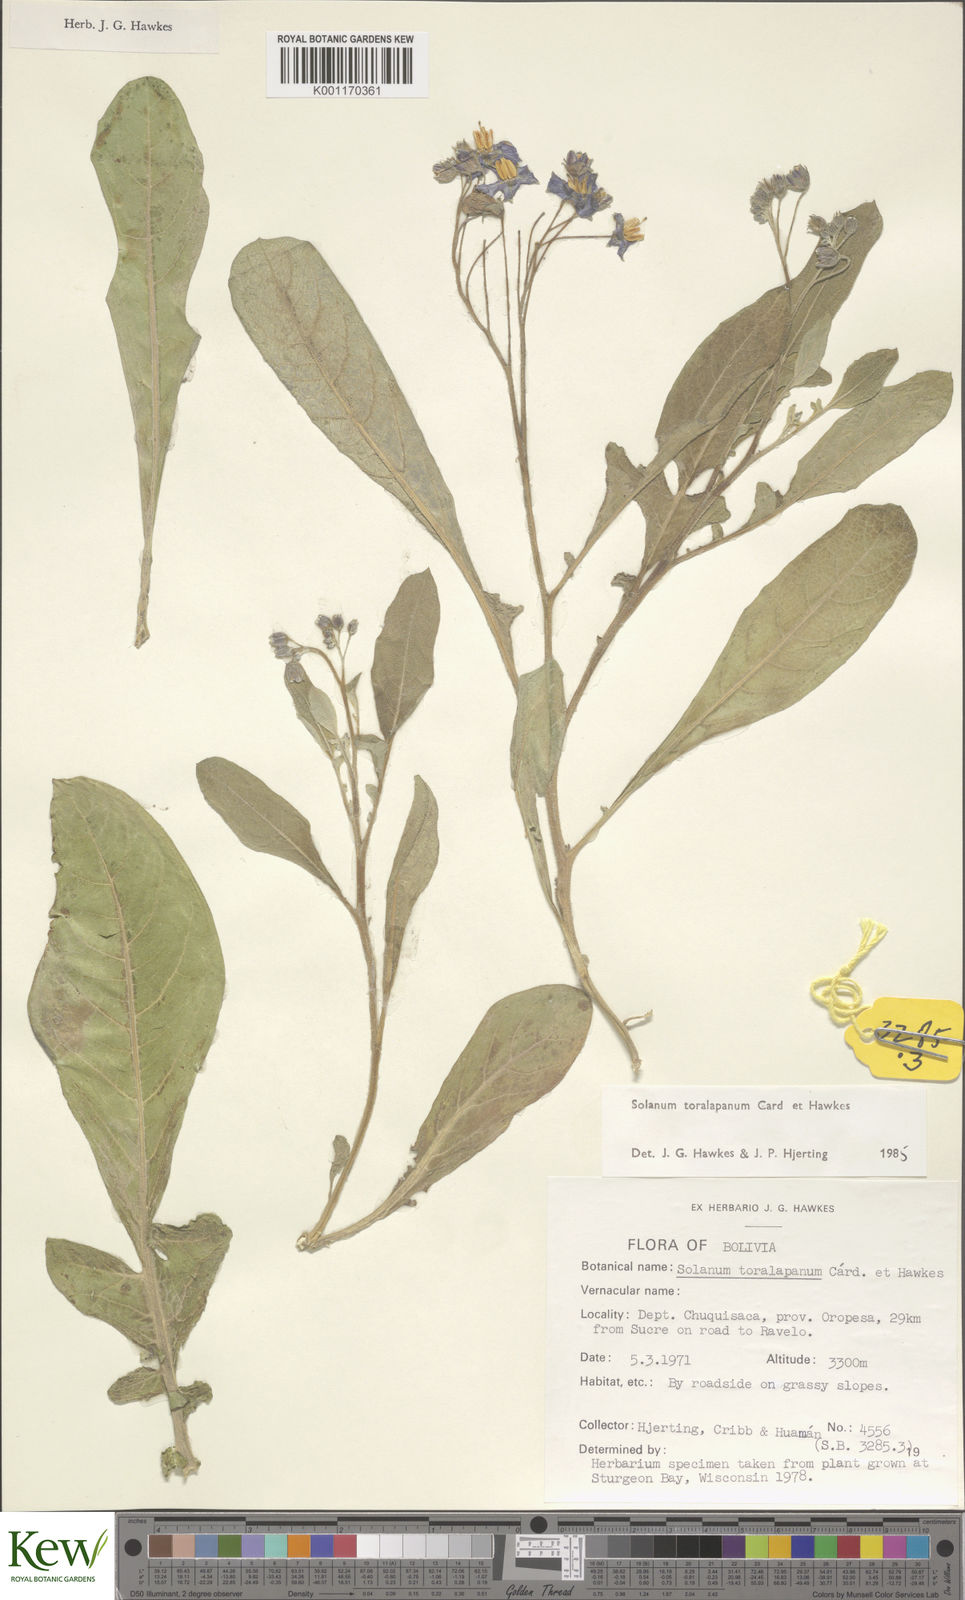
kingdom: Plantae
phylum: Tracheophyta
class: Magnoliopsida
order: Solanales
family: Solanaceae
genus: Solanum
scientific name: Solanum
